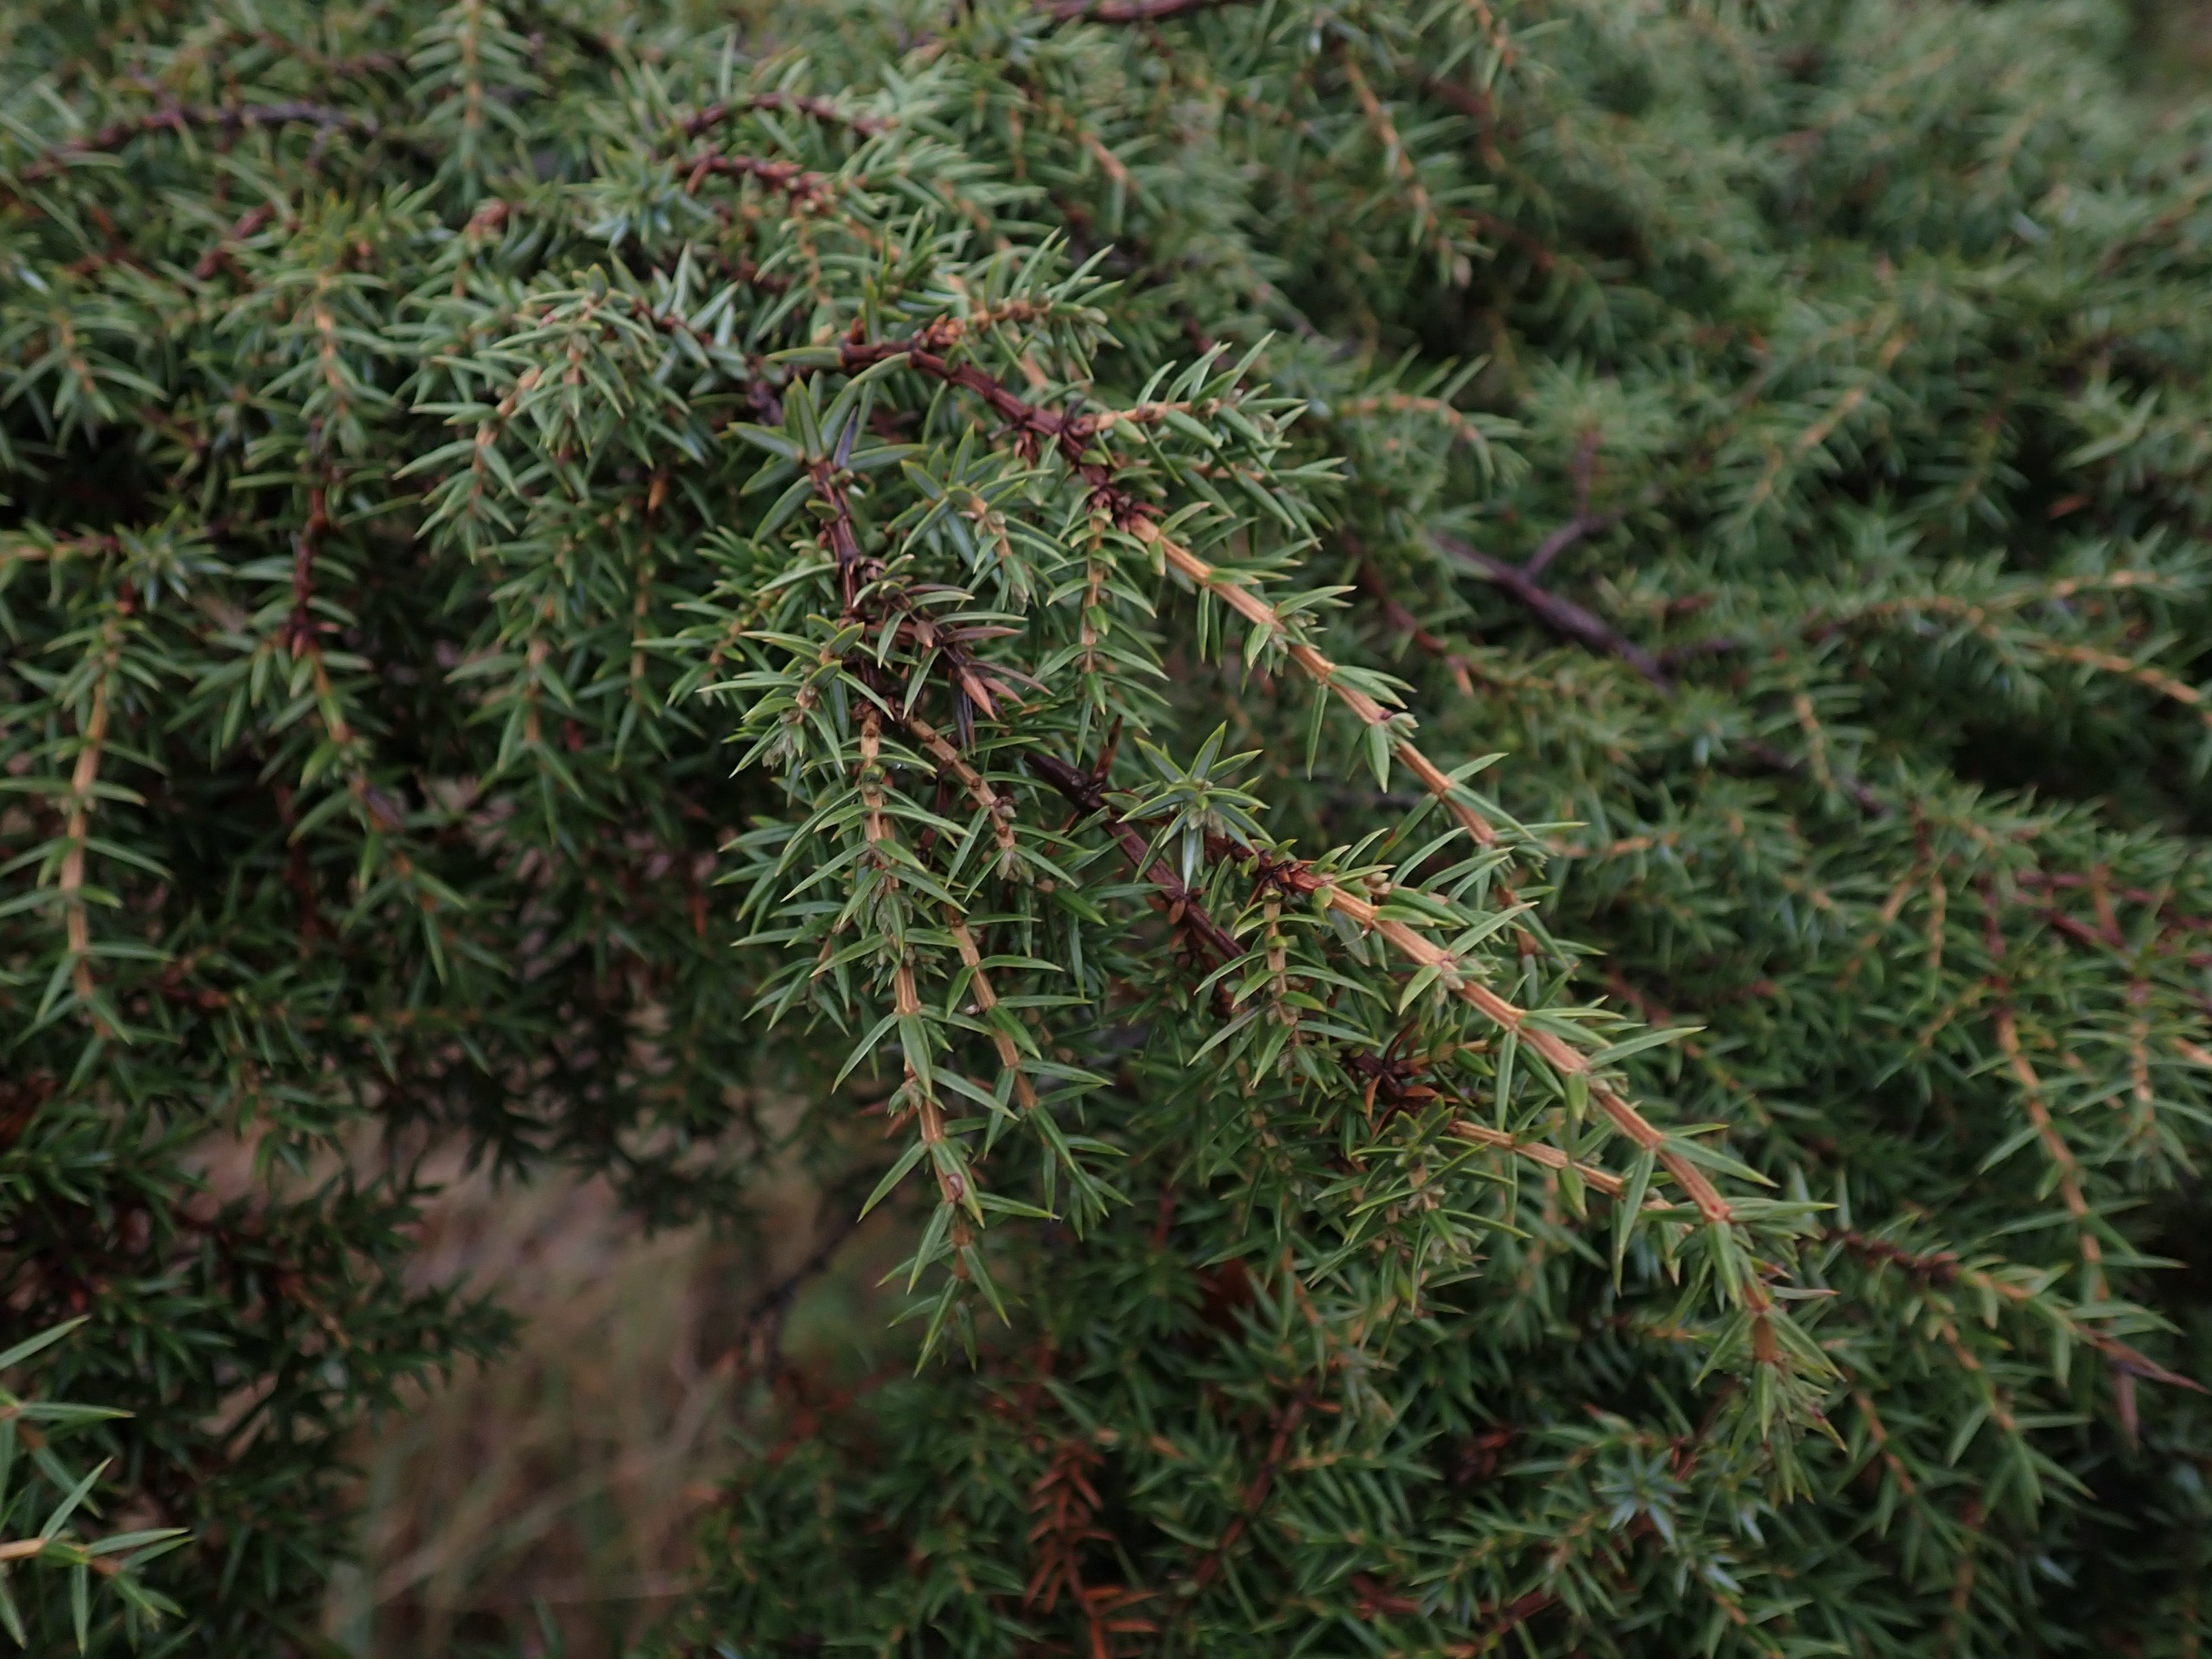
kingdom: Plantae
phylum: Tracheophyta
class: Pinopsida
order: Pinales
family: Cupressaceae
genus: Juniperus
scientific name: Juniperus communis
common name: Almindelig ene
